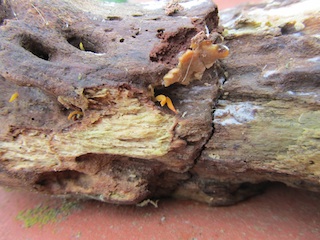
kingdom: Fungi
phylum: Basidiomycota
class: Dacrymycetes
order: Dacrymycetales
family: Dacrymycetaceae
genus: Calocera
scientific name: Calocera cornea
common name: liden guldgaffel
